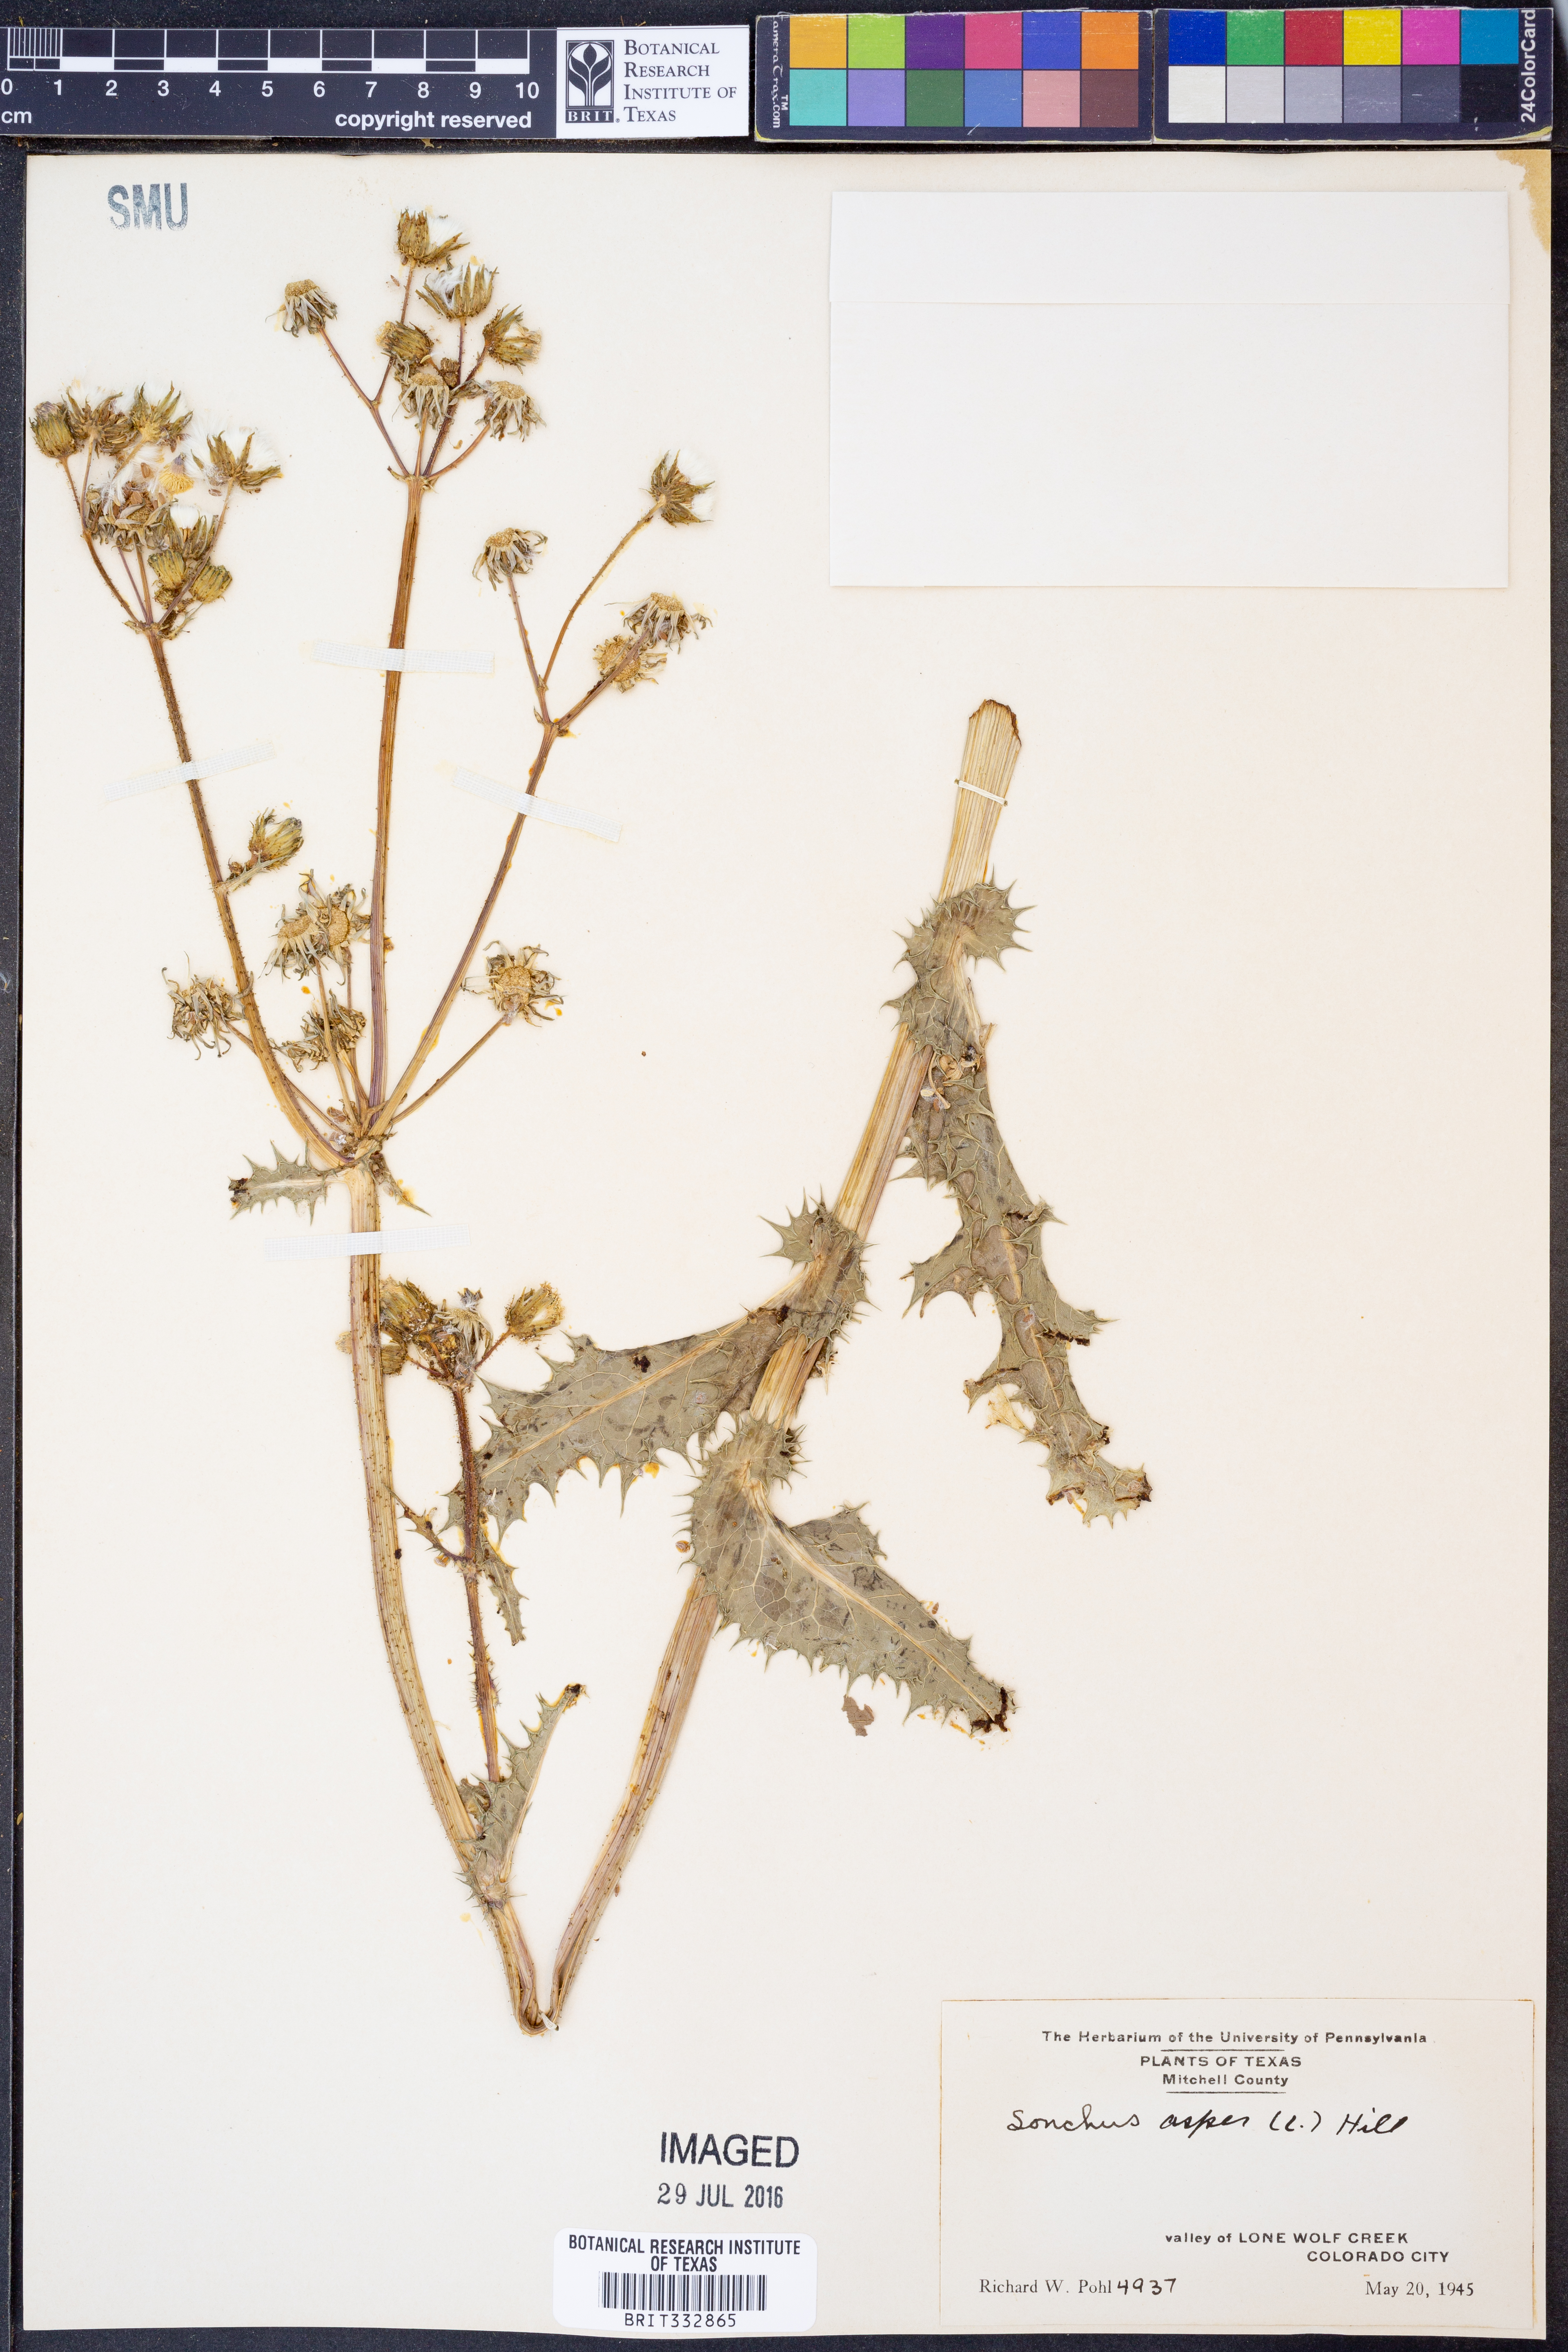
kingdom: Plantae
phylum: Tracheophyta
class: Magnoliopsida
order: Asterales
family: Asteraceae
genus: Sonchus
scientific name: Sonchus asper
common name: Prickly sow-thistle
